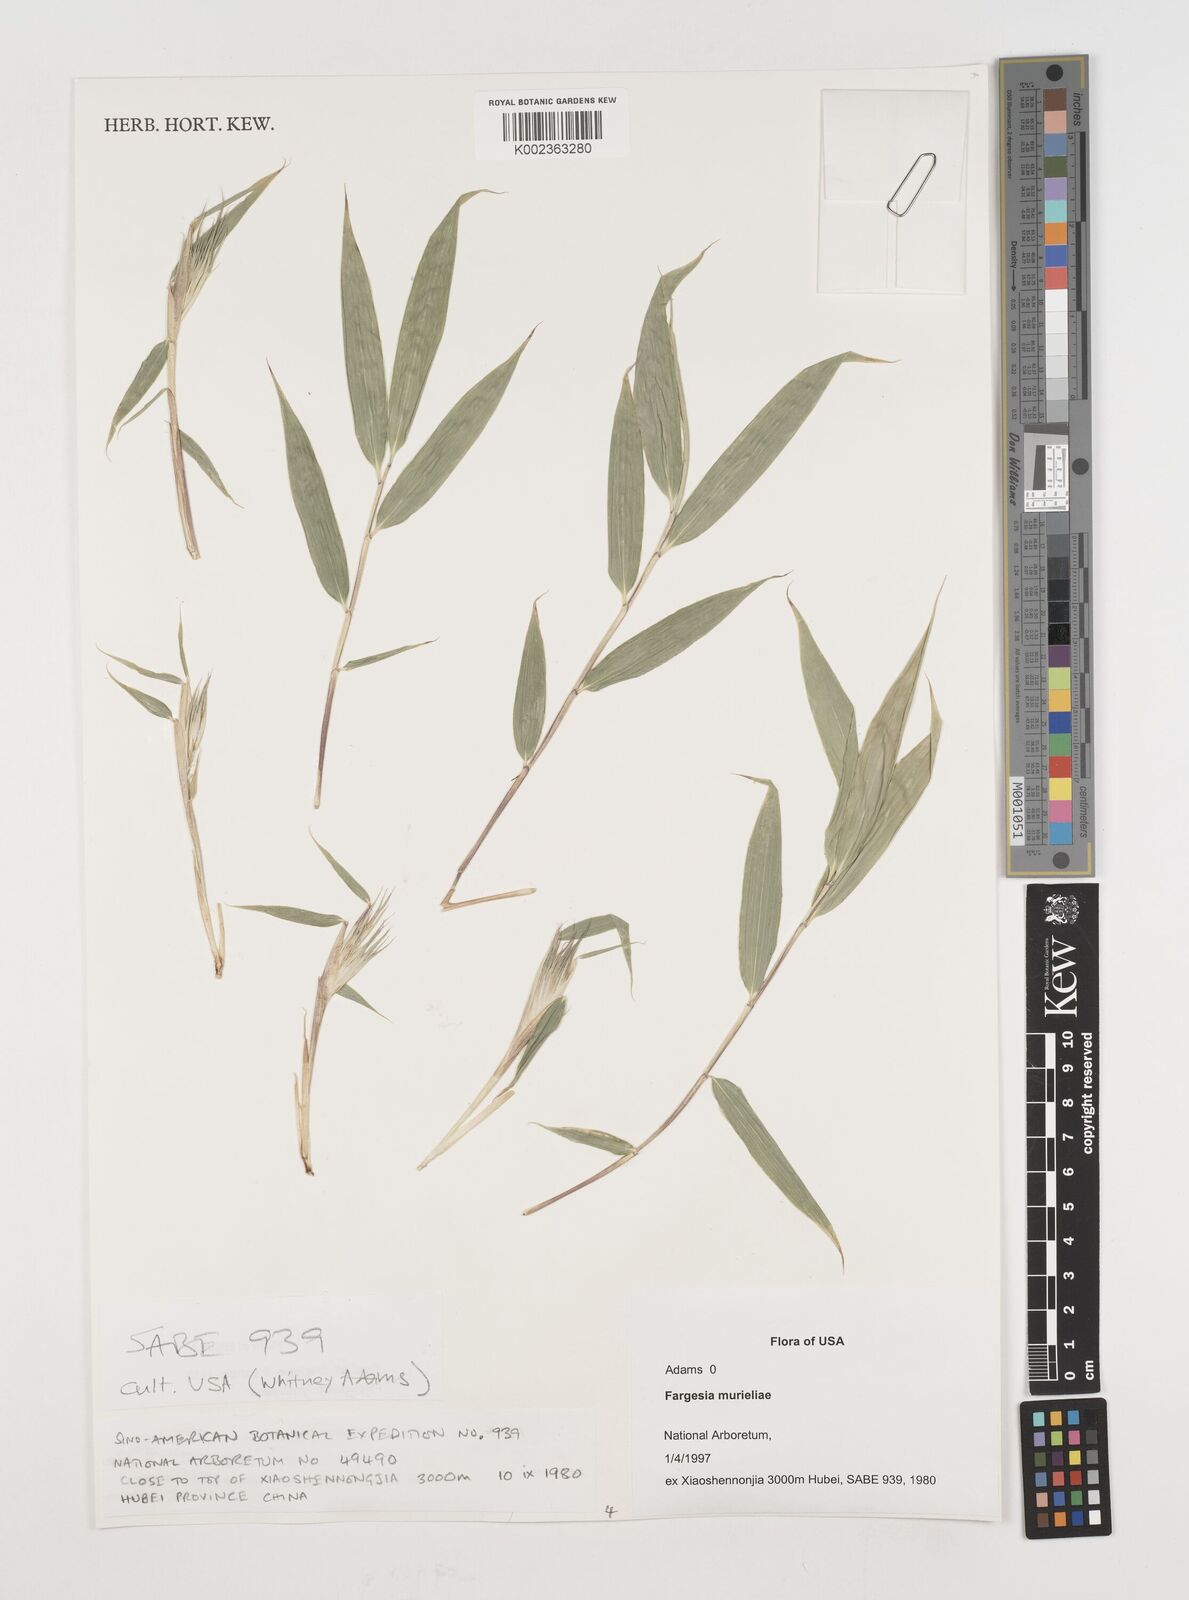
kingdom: Plantae
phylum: Tracheophyta
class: Liliopsida
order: Poales
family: Poaceae
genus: Fargesia
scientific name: Fargesia murielae
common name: Umbrella bamboo
